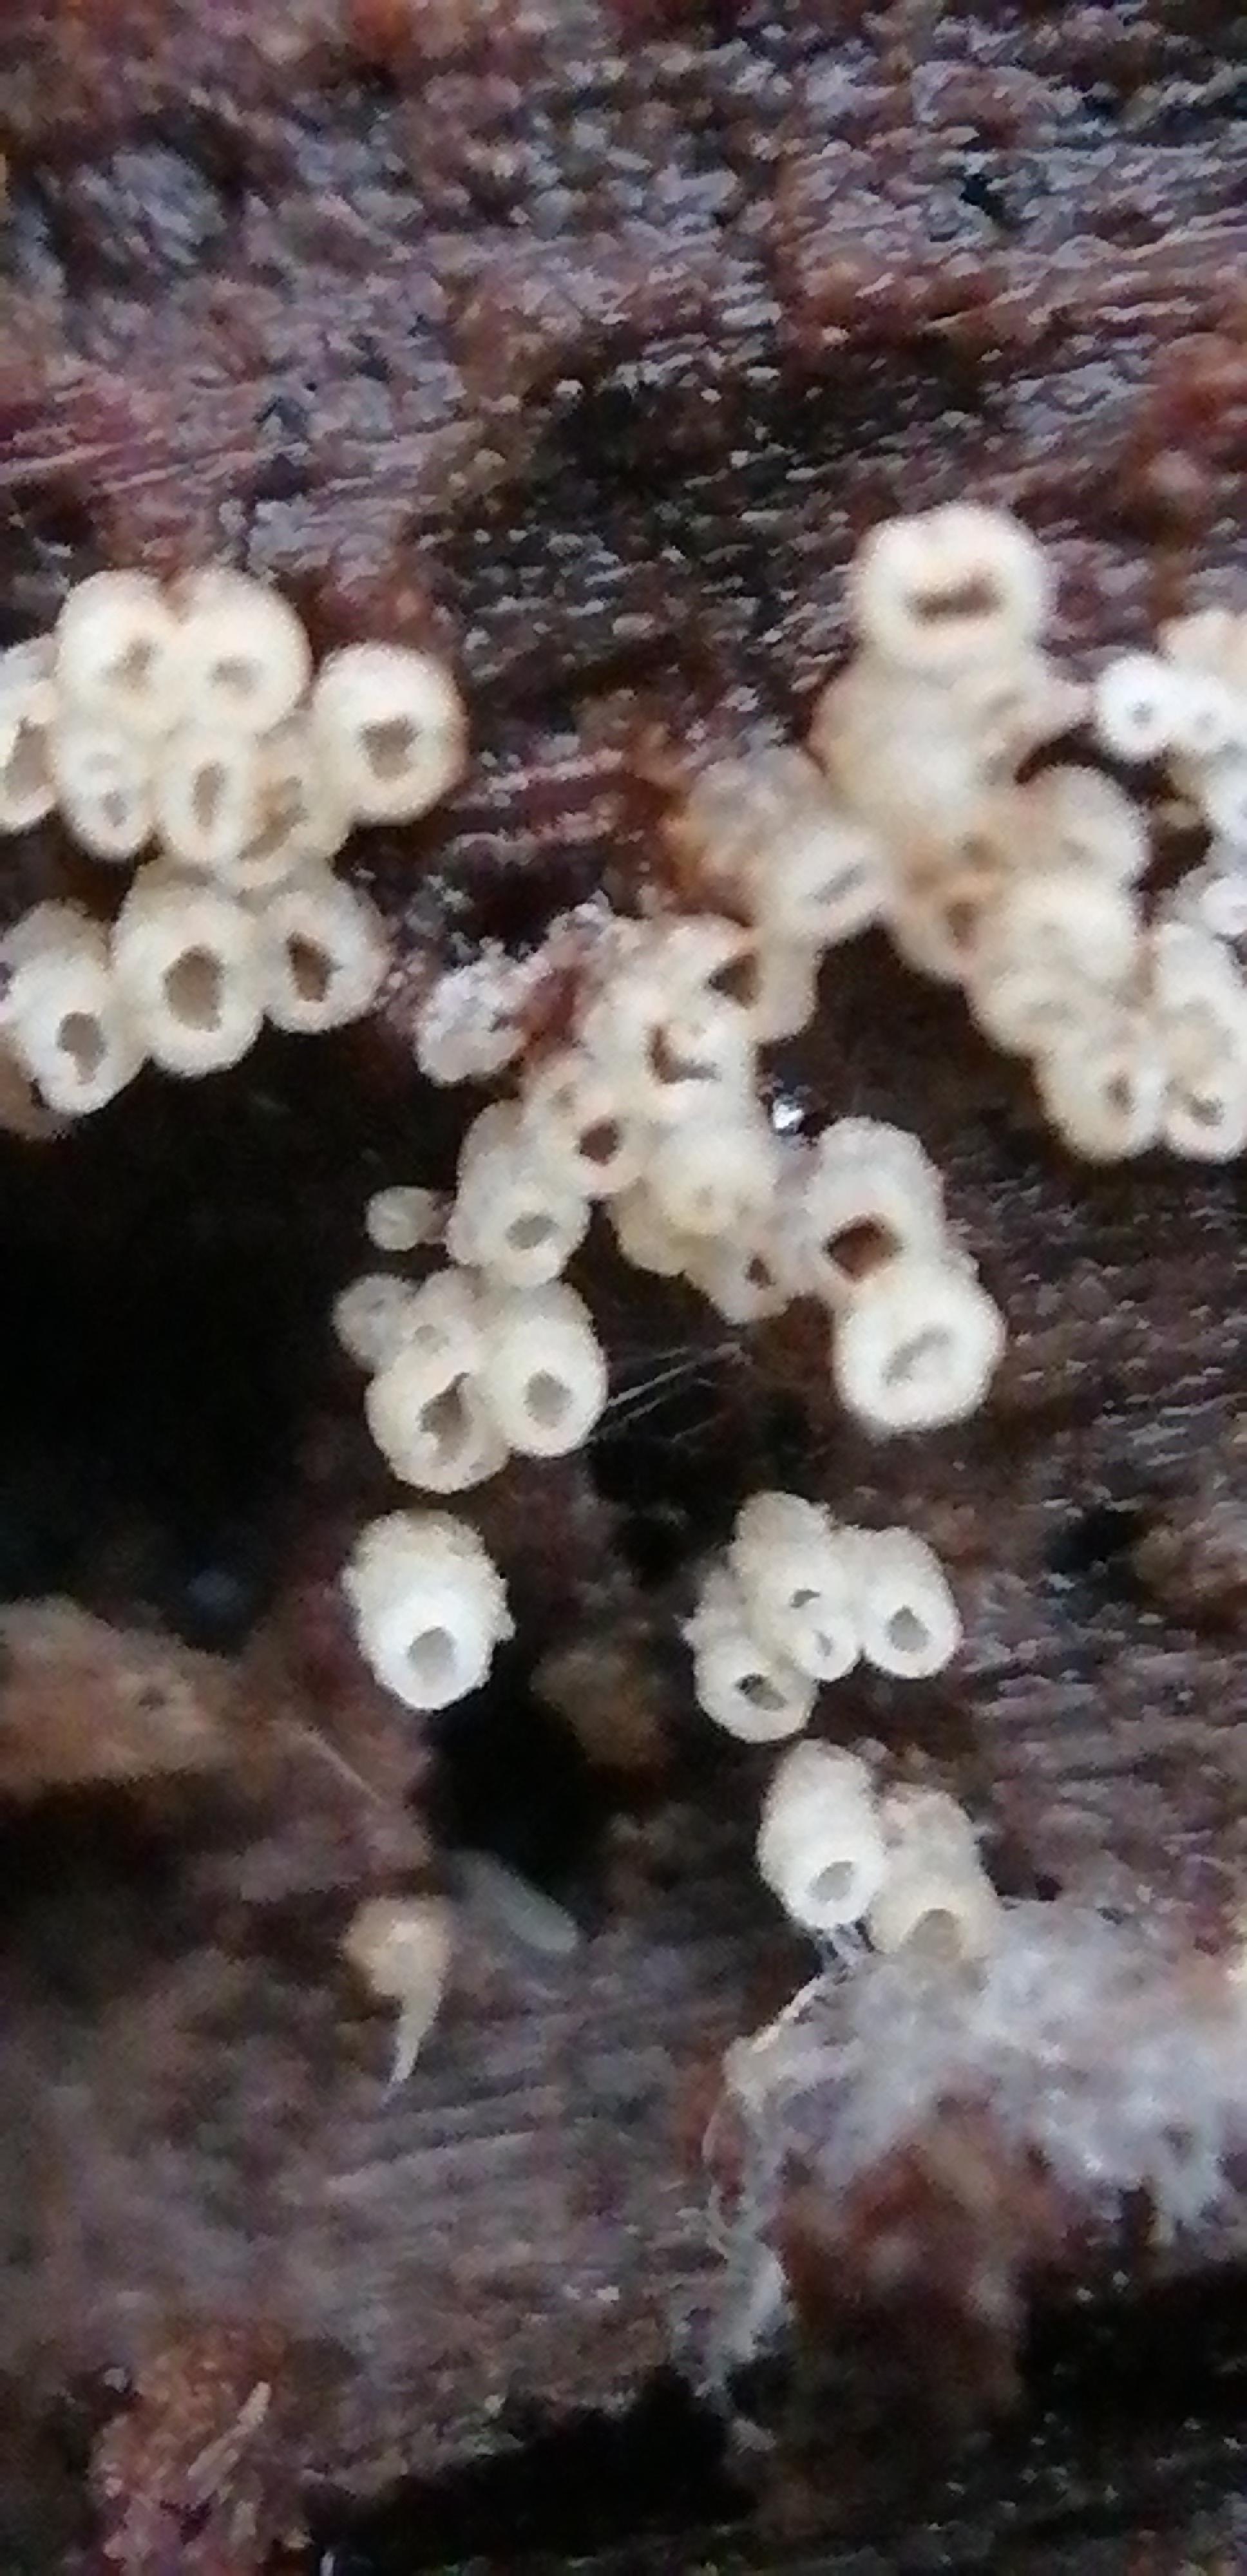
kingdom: Fungi
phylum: Basidiomycota
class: Agaricomycetes
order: Agaricales
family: Marasmiaceae
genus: Henningsomyces
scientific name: Henningsomyces
